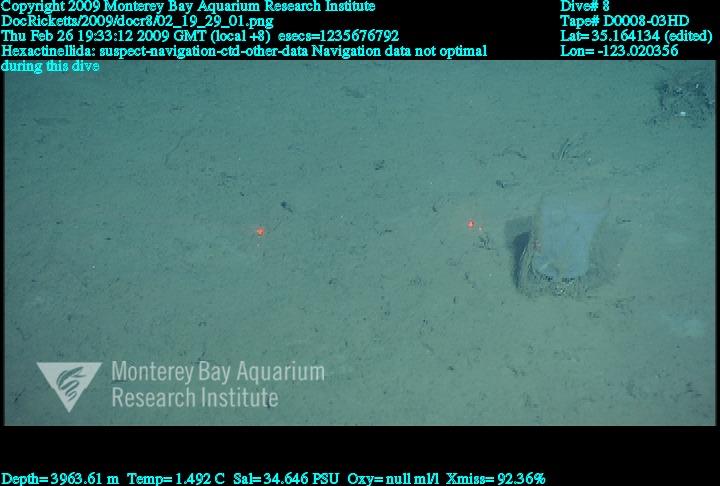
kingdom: Animalia
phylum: Porifera
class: Hexactinellida
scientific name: Hexactinellida
